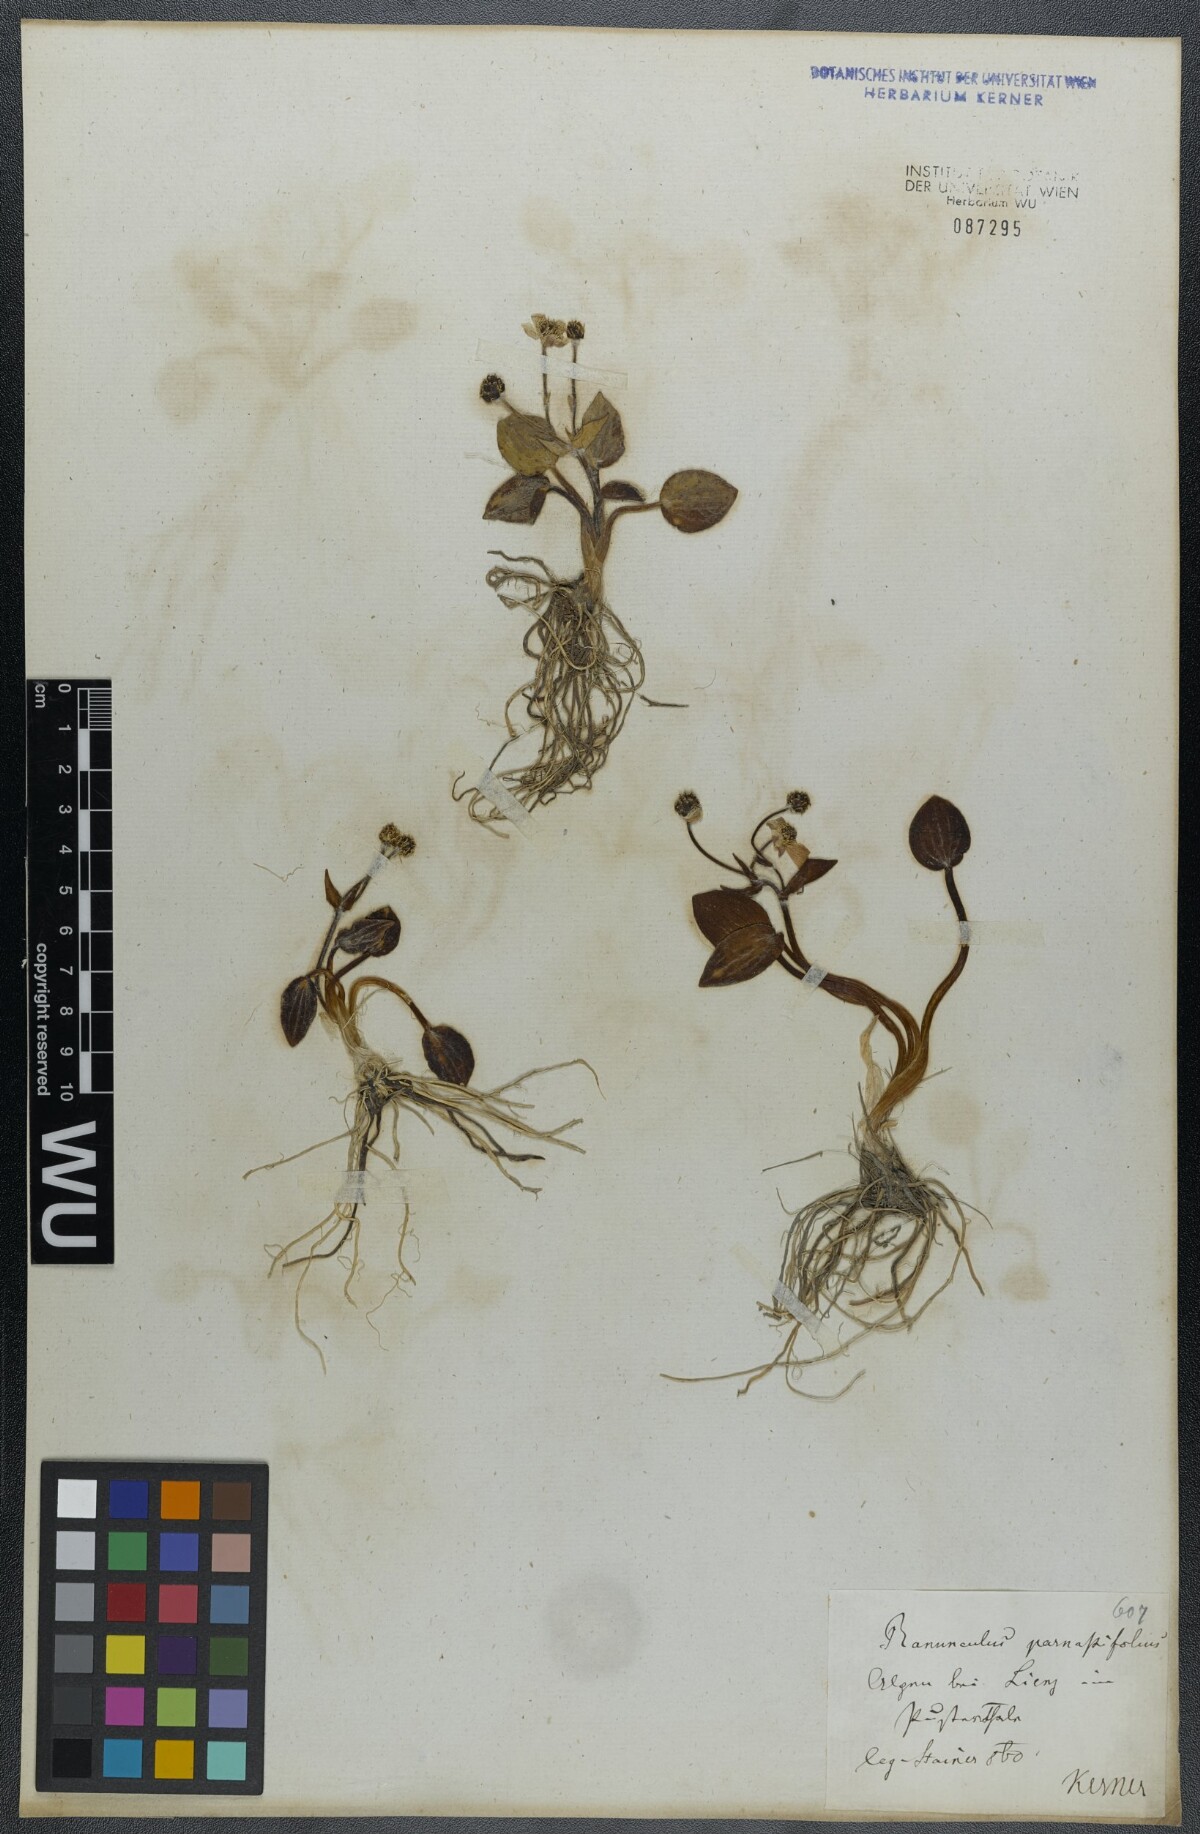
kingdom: Plantae
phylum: Tracheophyta
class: Magnoliopsida
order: Ranunculales
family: Ranunculaceae
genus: Ranunculus
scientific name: Ranunculus parnassiifolius
